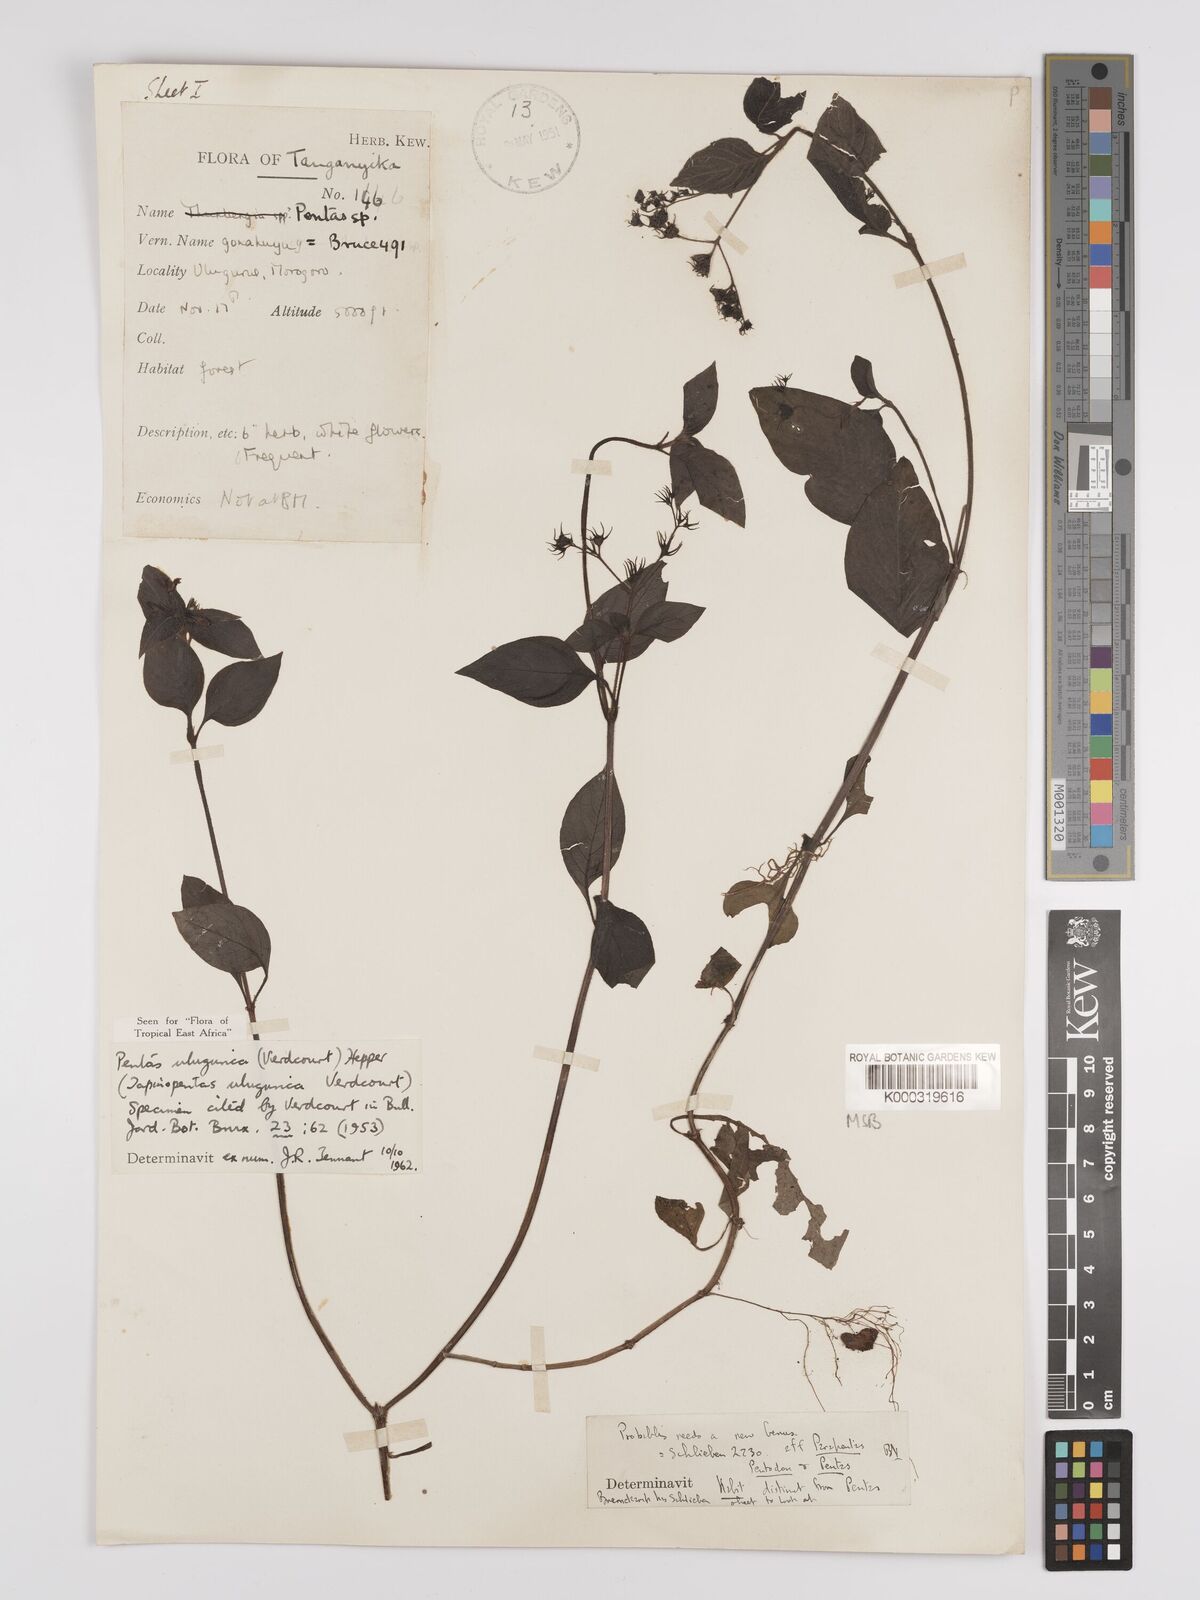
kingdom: Plantae
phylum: Tracheophyta
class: Magnoliopsida
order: Gentianales
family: Rubiaceae
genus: Phyllopentas
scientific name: Phyllopentas ulugurica
